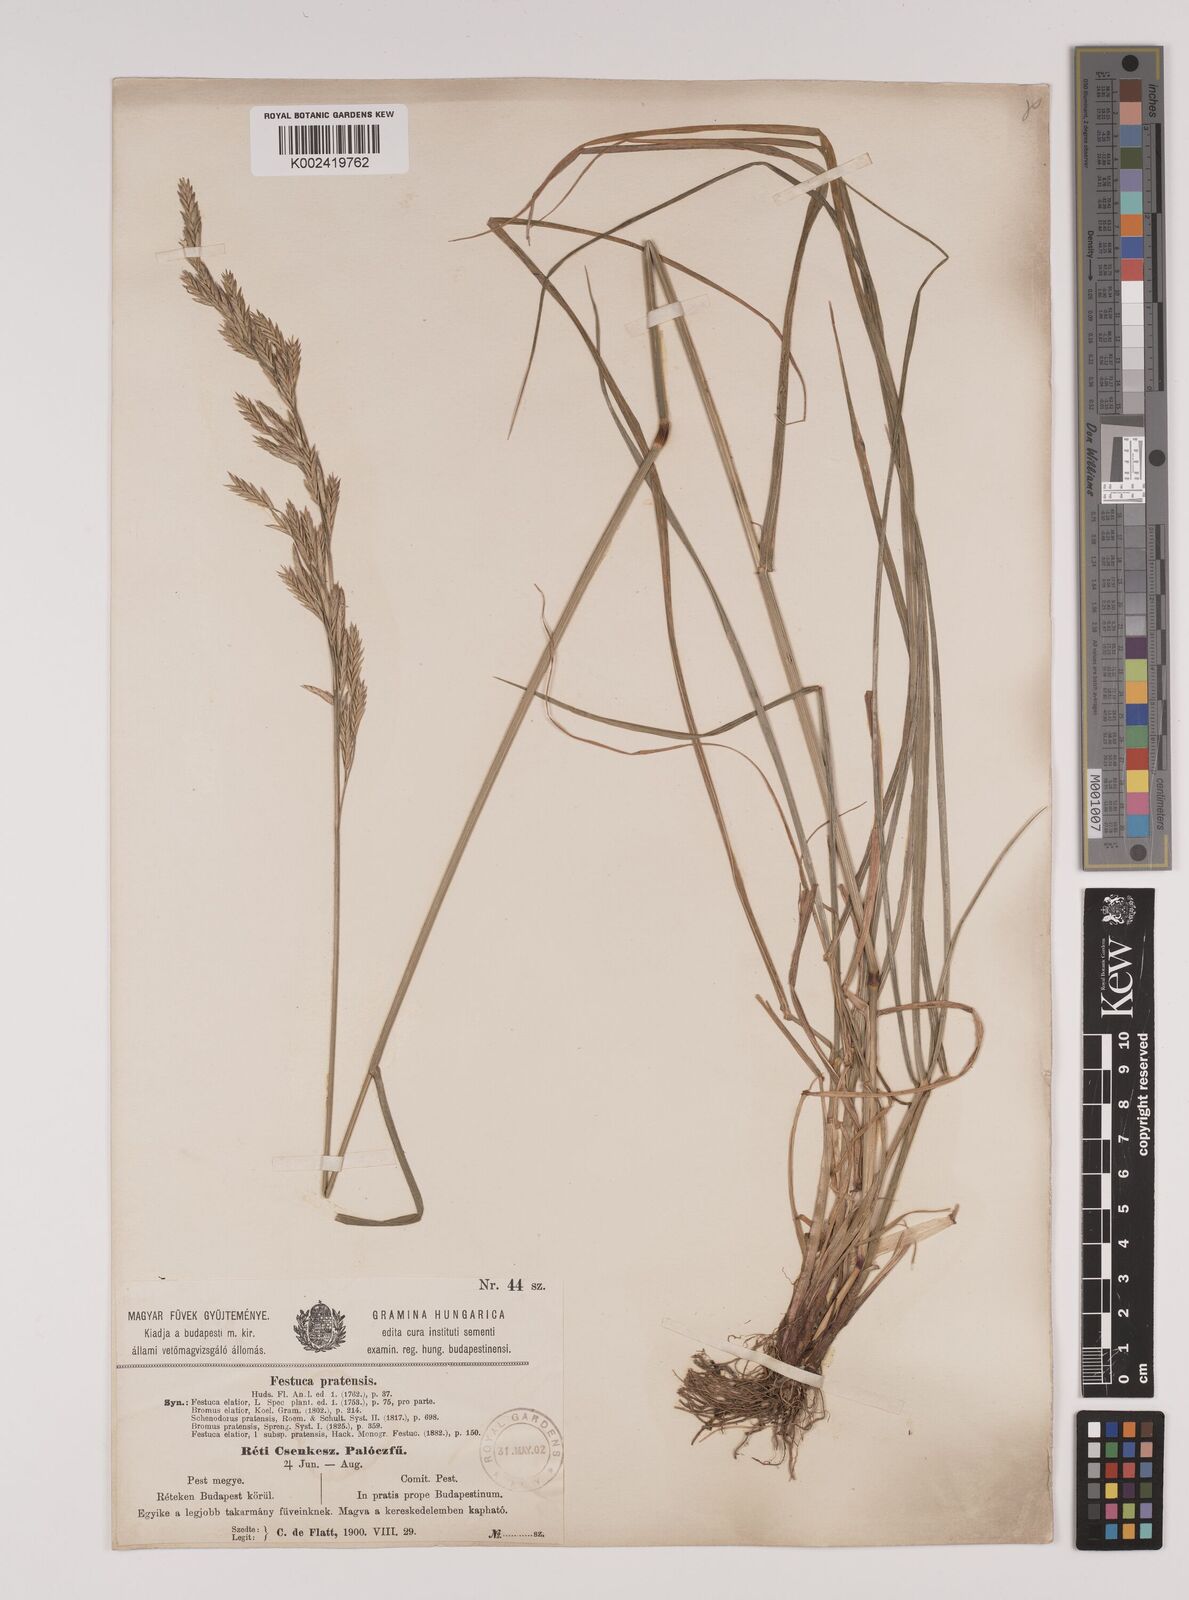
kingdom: Plantae
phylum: Tracheophyta
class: Liliopsida
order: Poales
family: Poaceae
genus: Lolium
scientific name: Lolium pratense
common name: Dover grass
